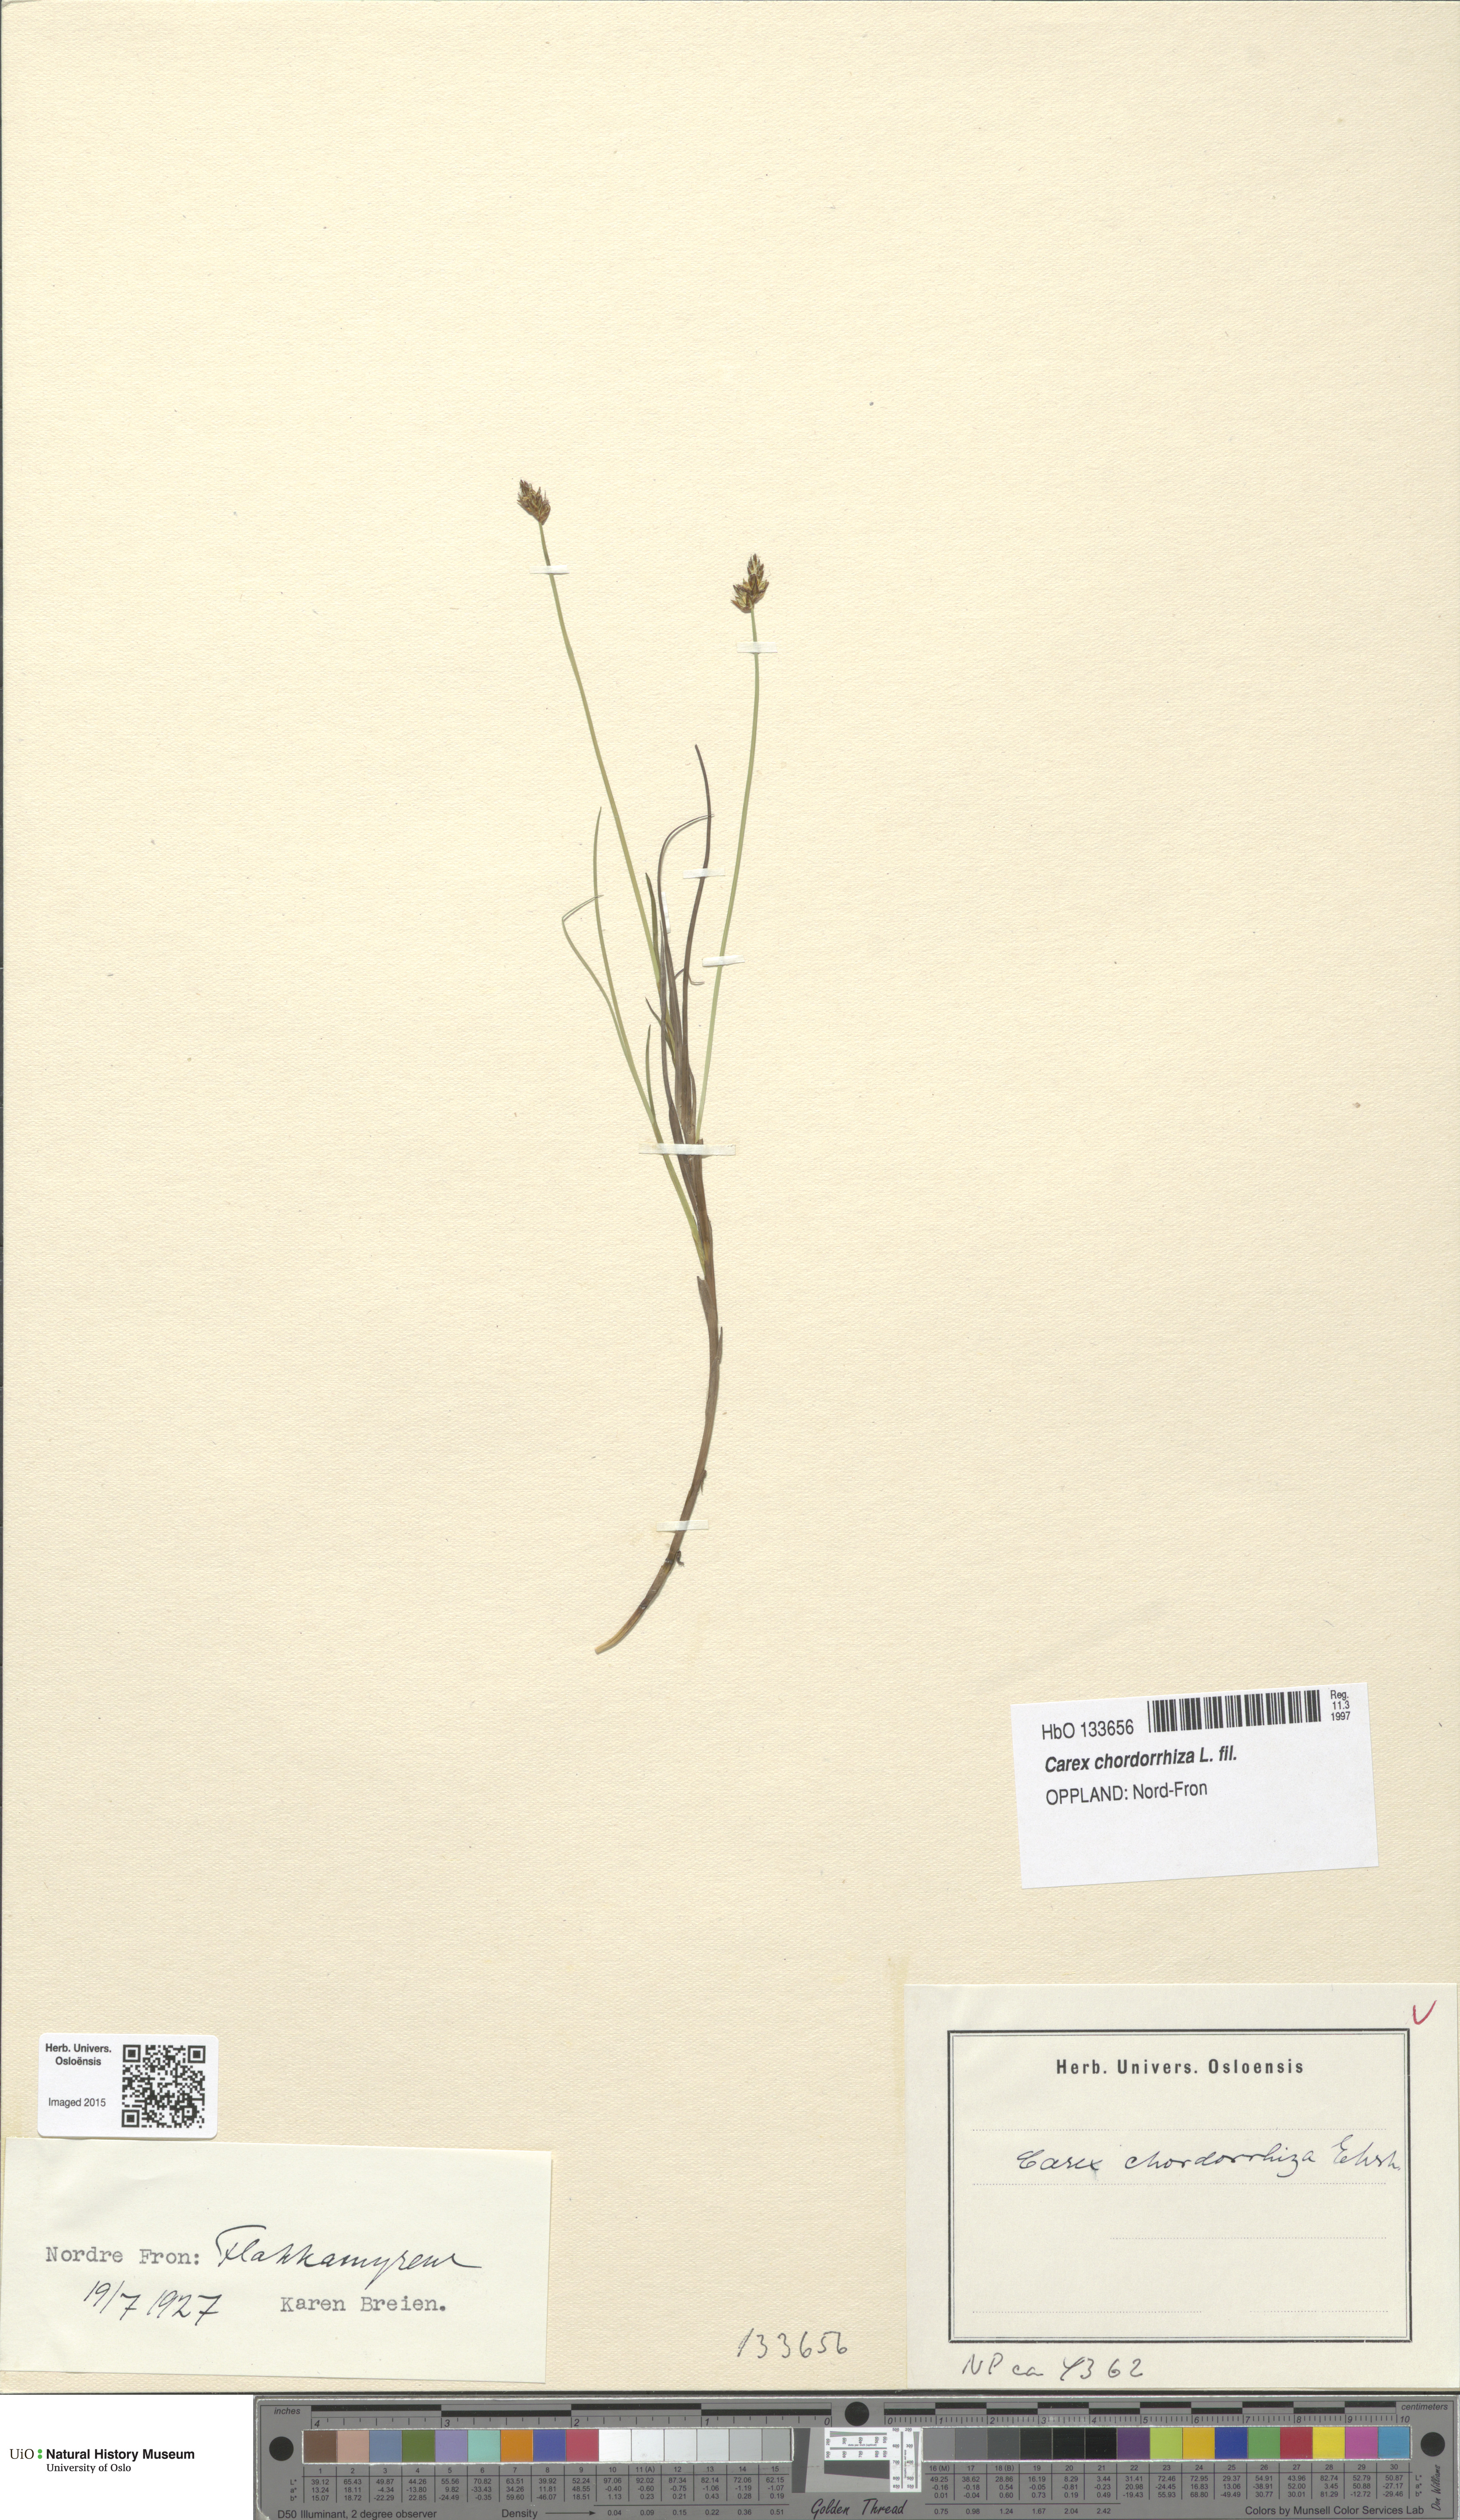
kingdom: Plantae
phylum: Tracheophyta
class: Liliopsida
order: Poales
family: Cyperaceae
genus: Carex
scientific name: Carex chordorrhiza
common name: String sedge
